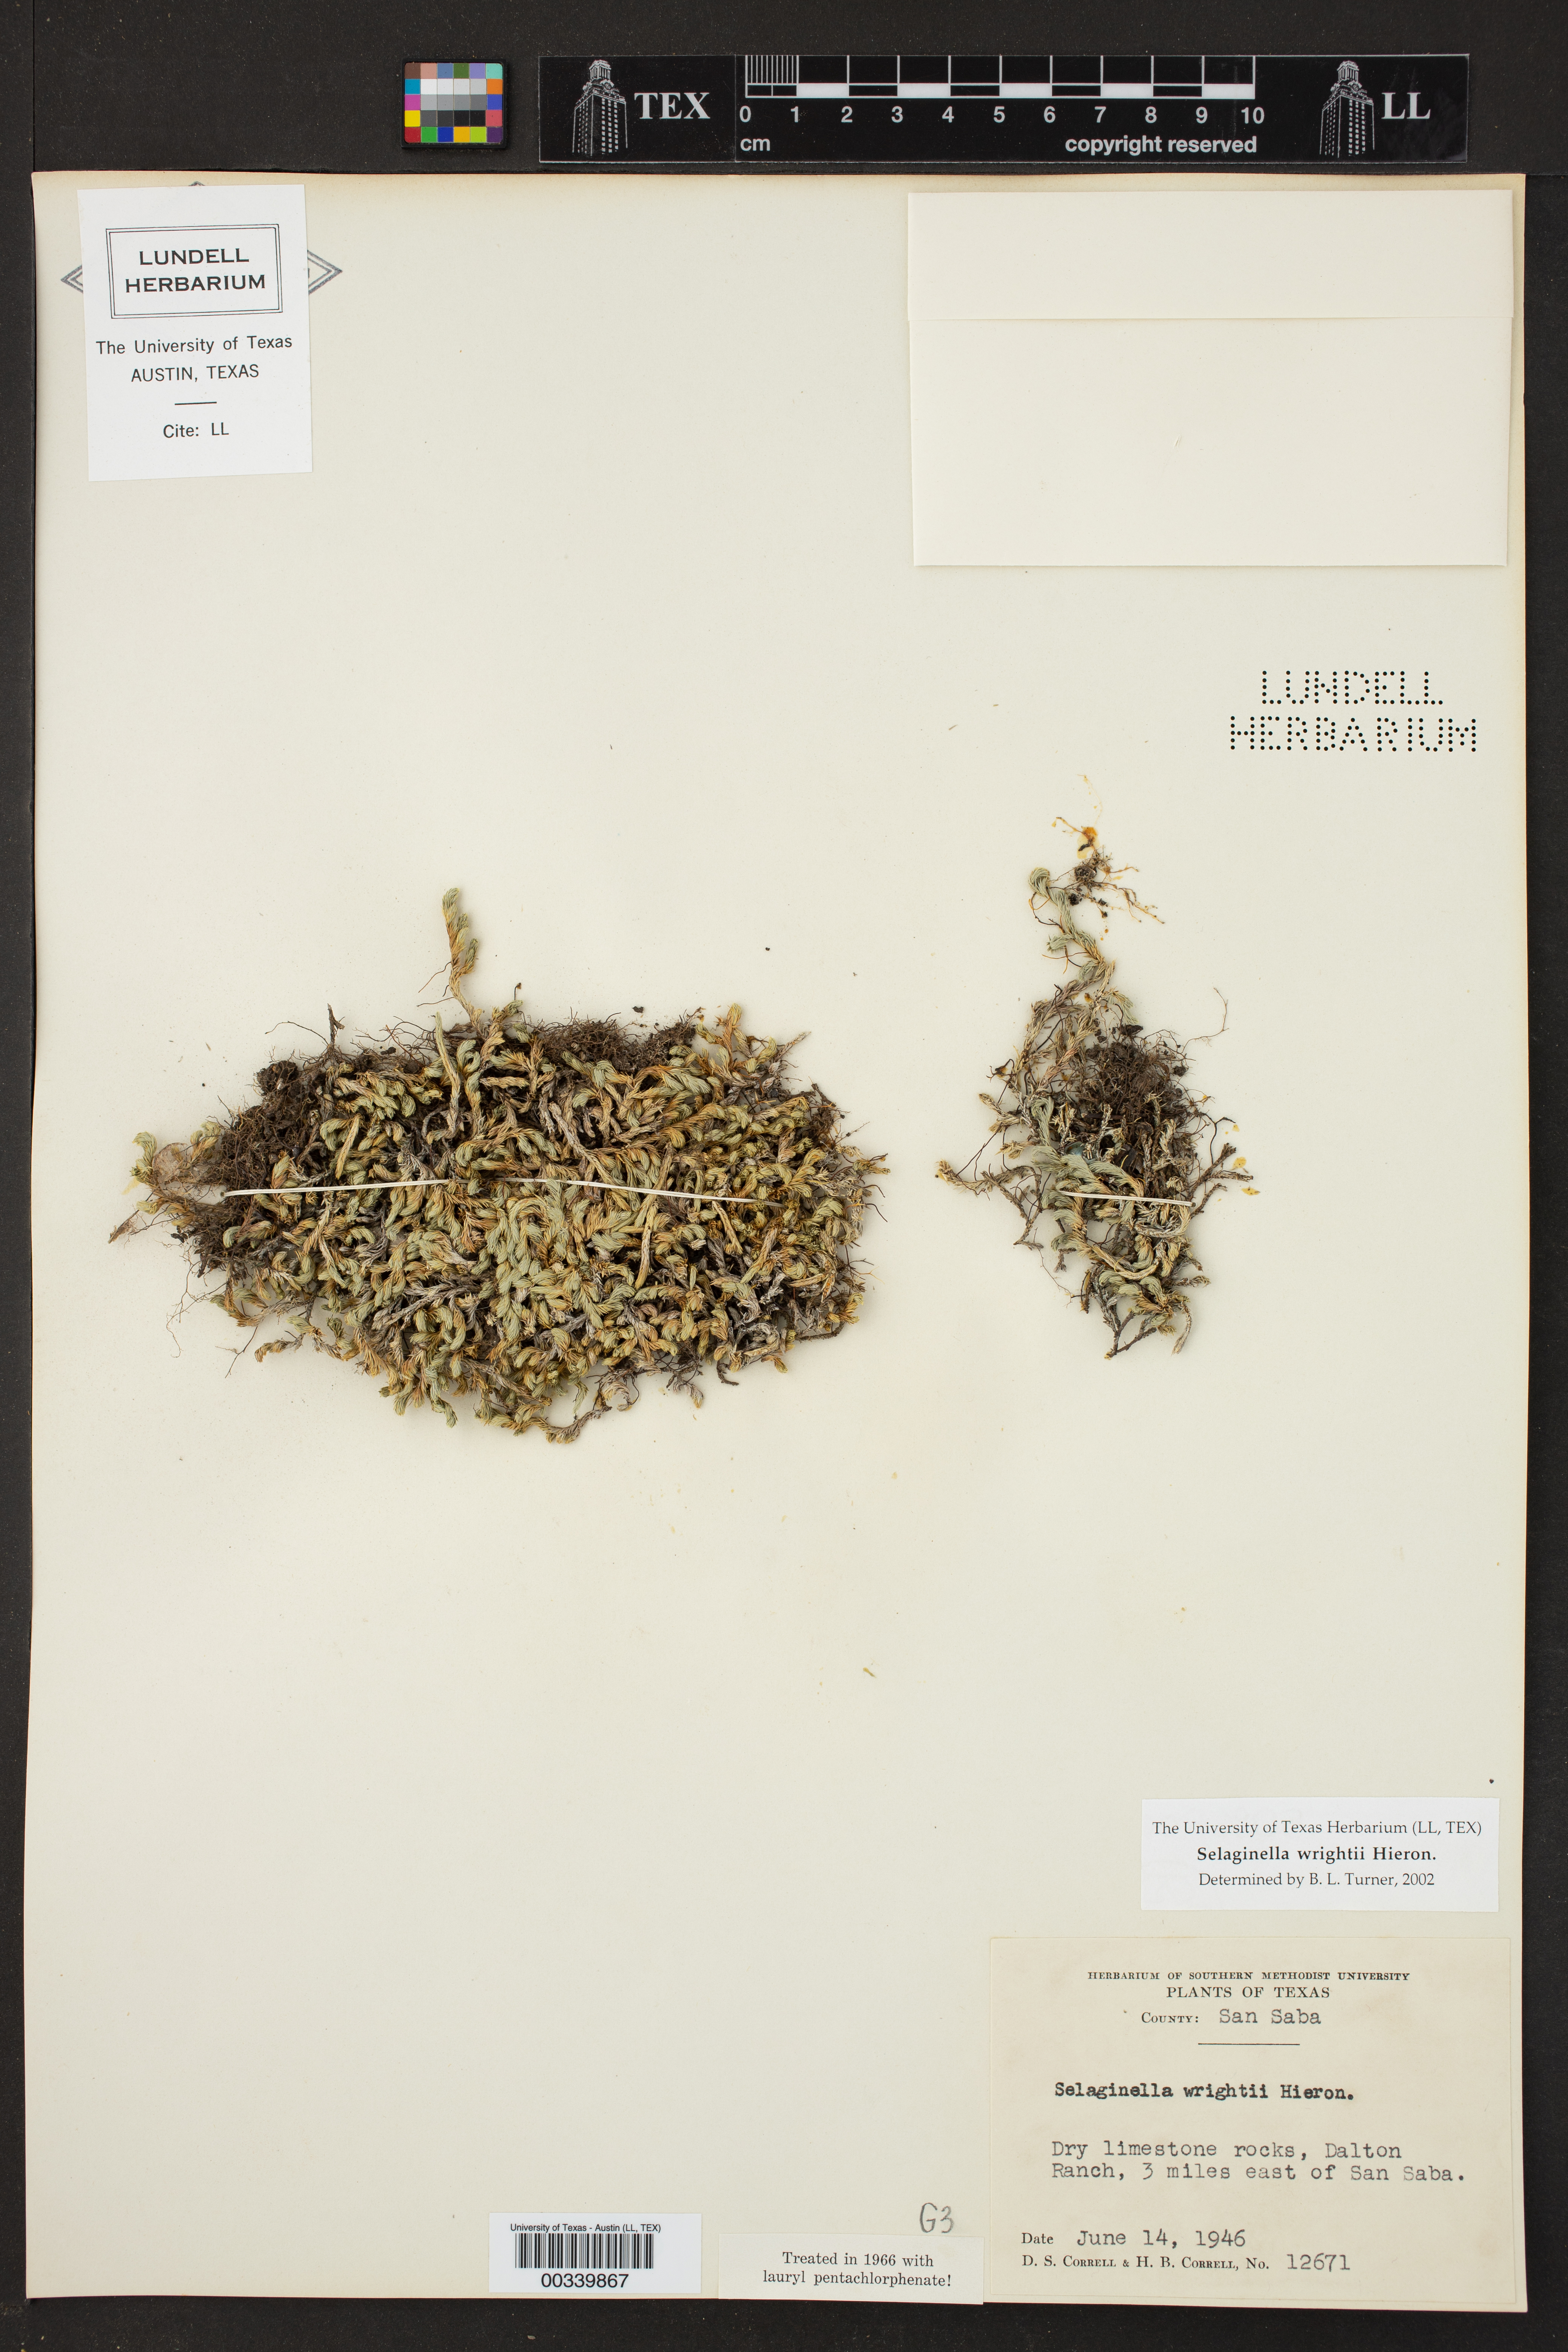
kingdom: Plantae
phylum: Tracheophyta
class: Lycopodiopsida
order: Selaginellales
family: Selaginellaceae
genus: Selaginella
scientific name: Selaginella wrightii
